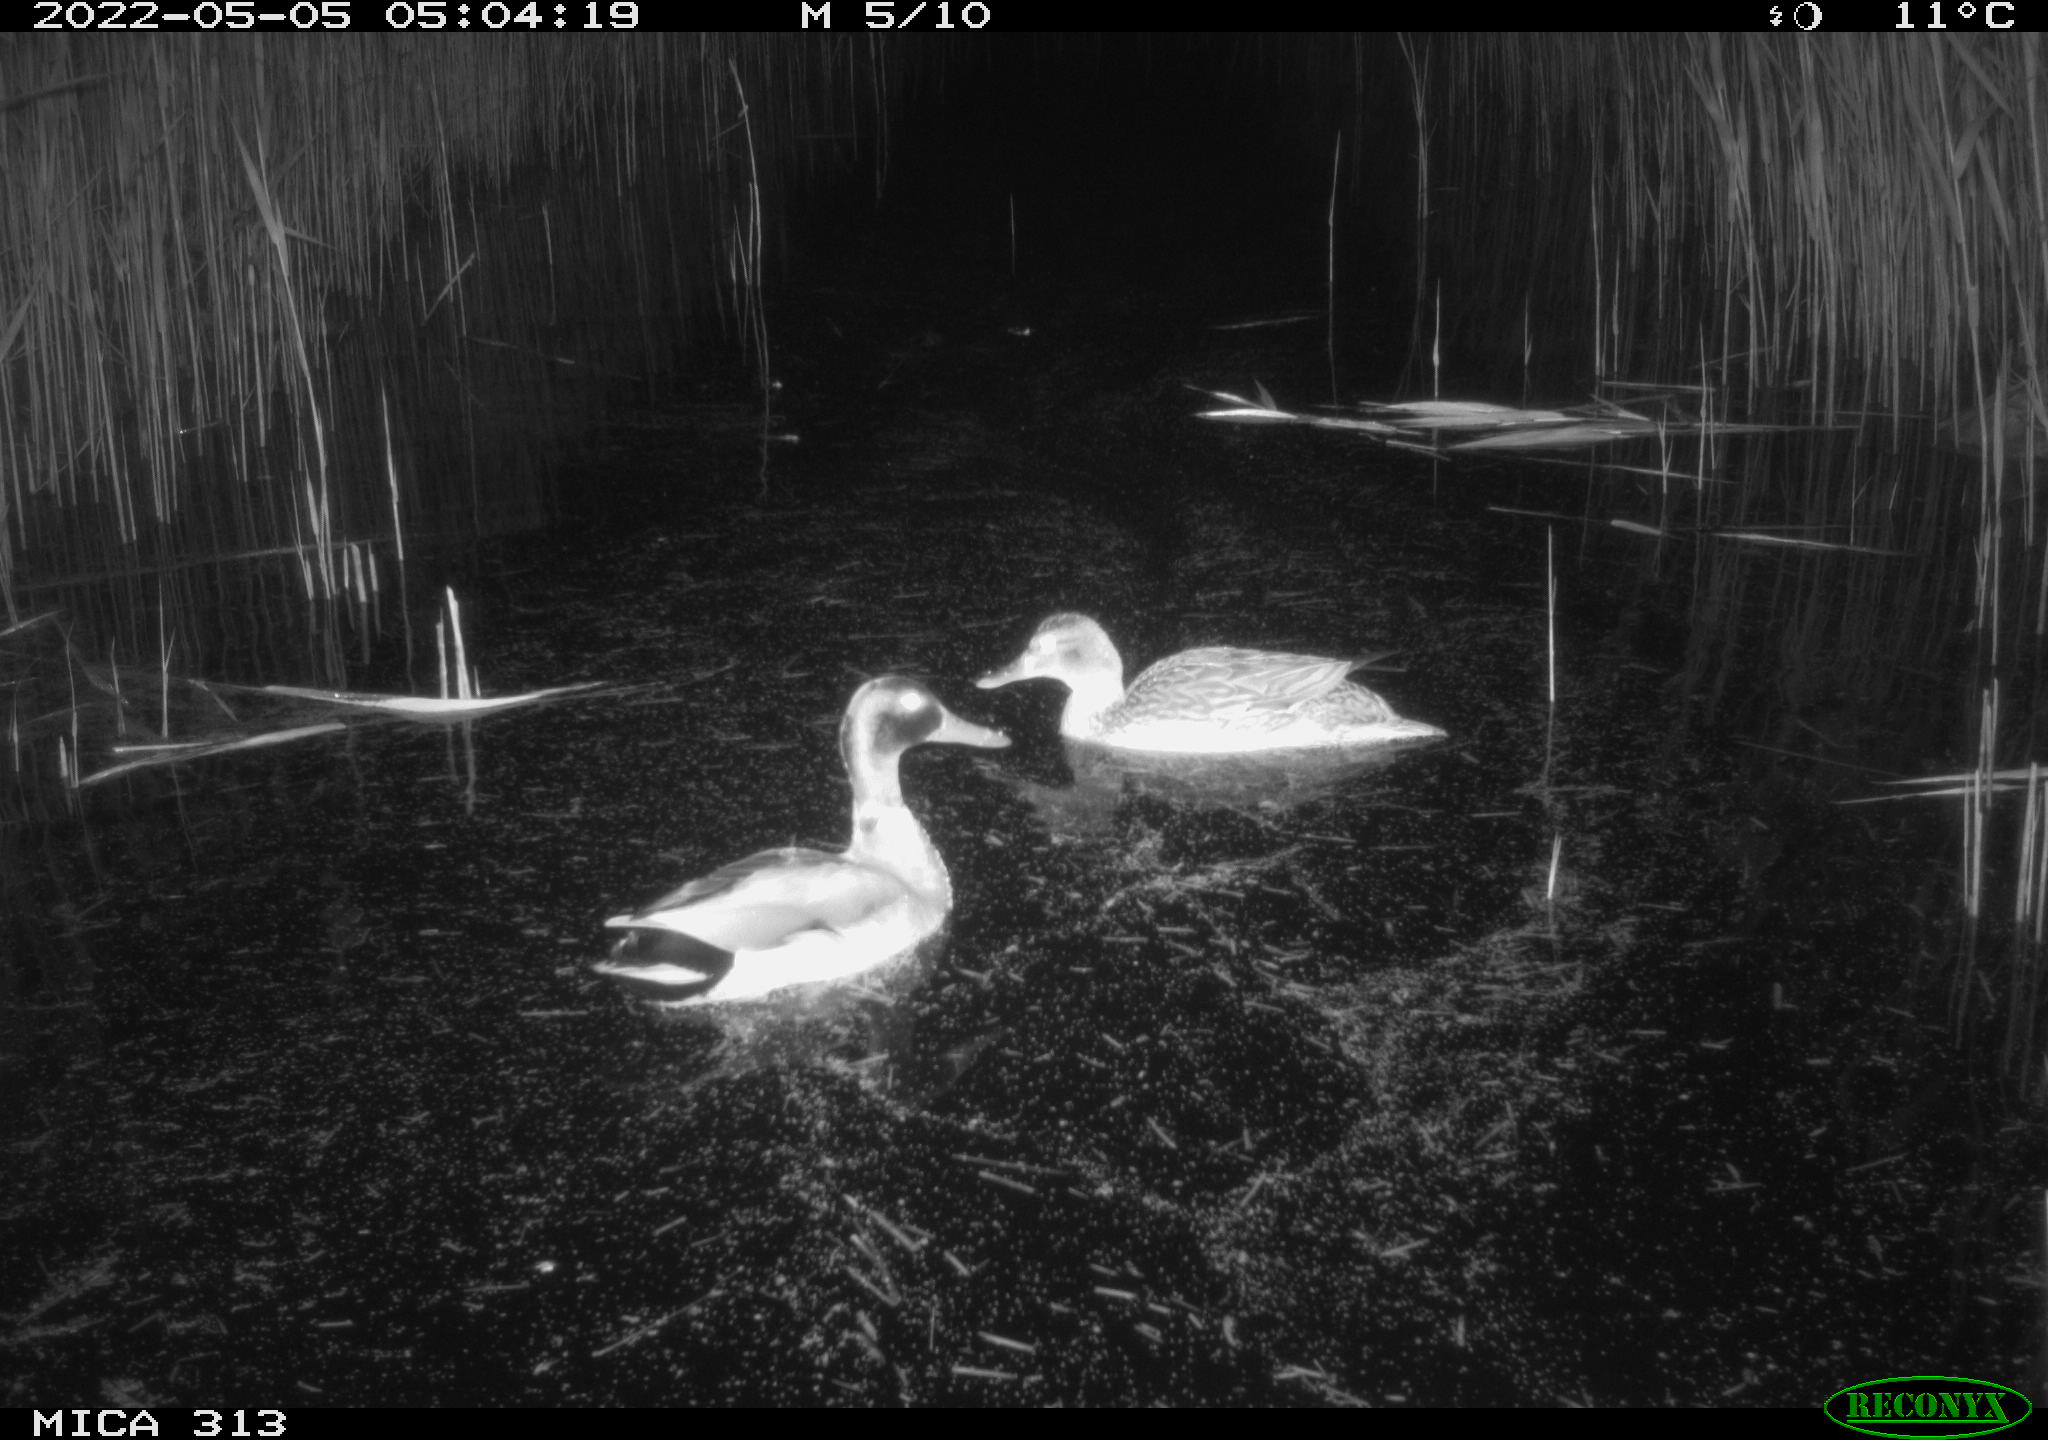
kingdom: Animalia
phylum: Chordata
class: Aves
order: Anseriformes
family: Anatidae
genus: Anas
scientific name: Anas platyrhynchos
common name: Mallard
